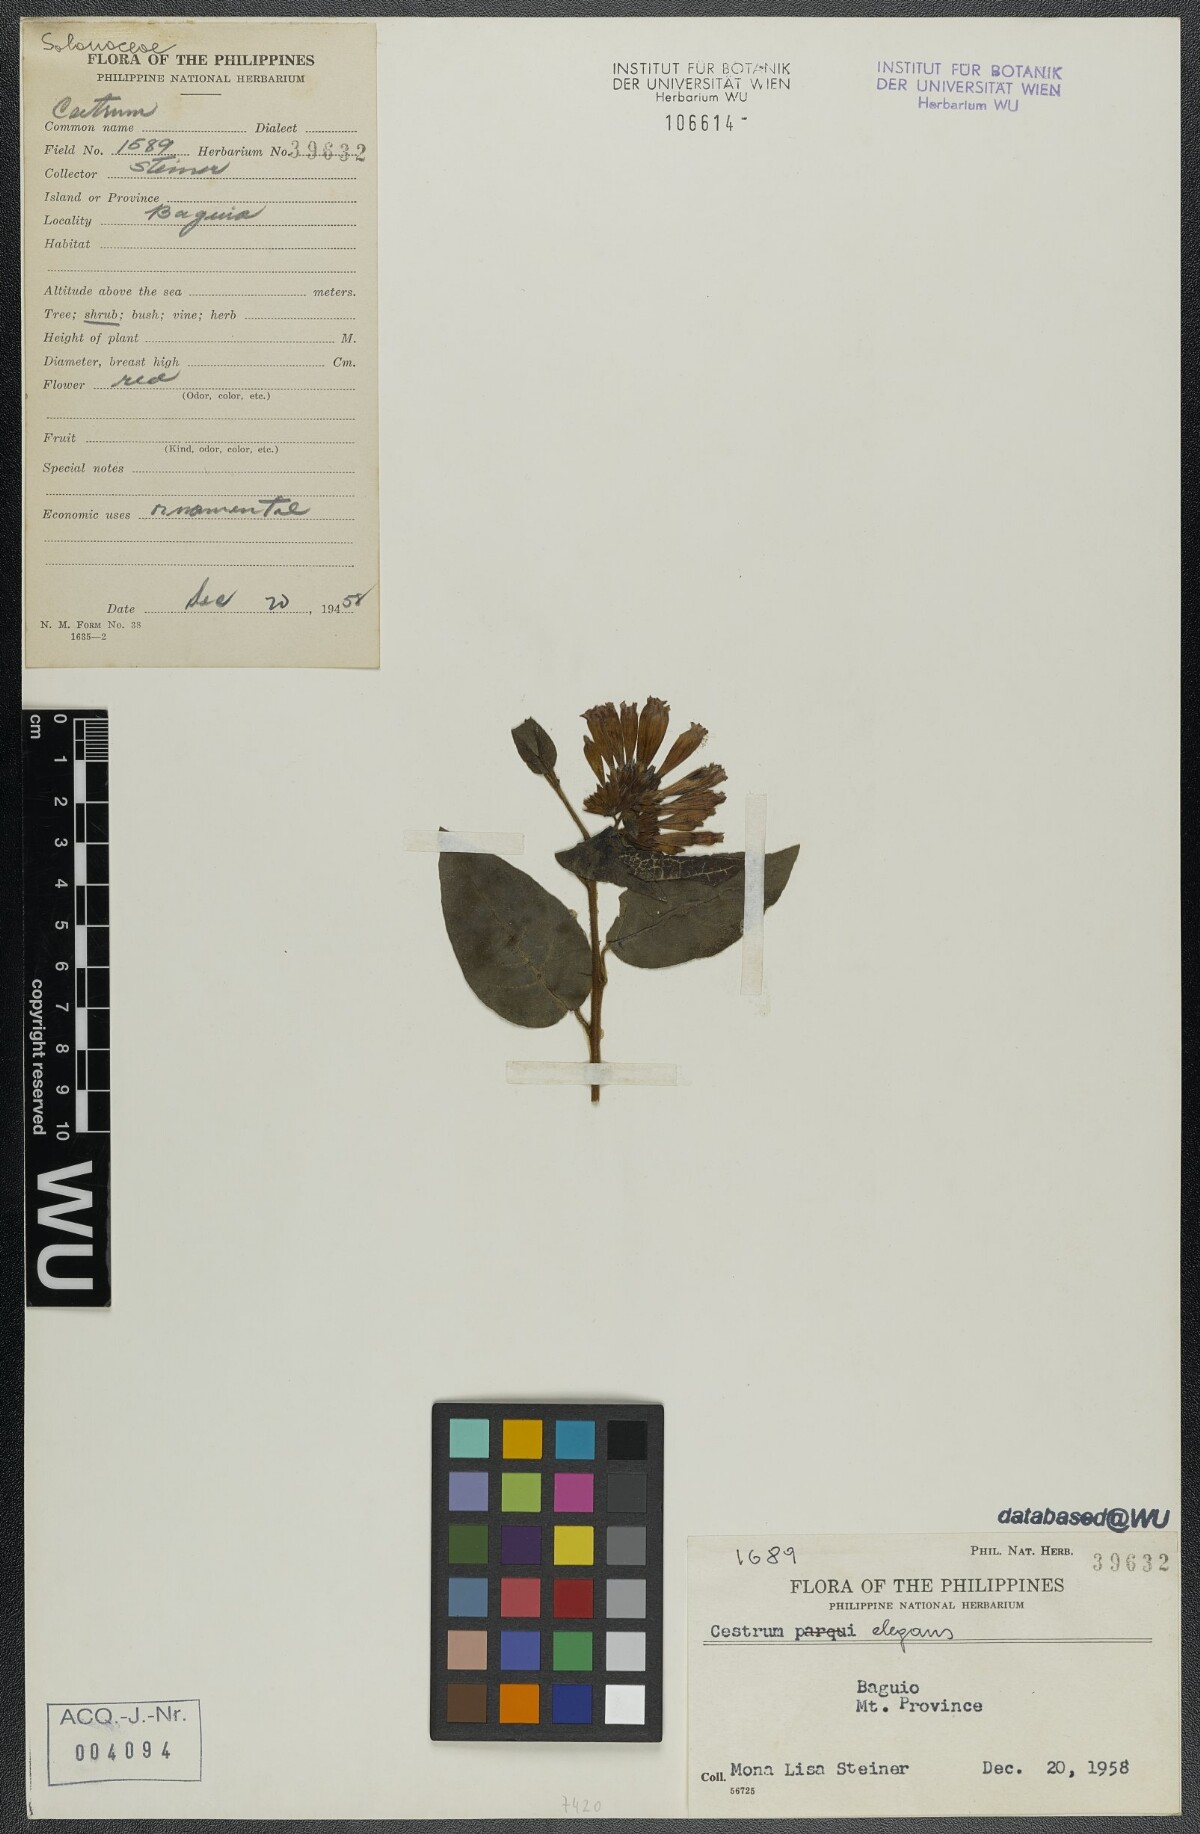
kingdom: Plantae
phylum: Tracheophyta
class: Magnoliopsida
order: Solanales
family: Solanaceae
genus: Cestrum
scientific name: Cestrum elegans
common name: Crimson cestrum
